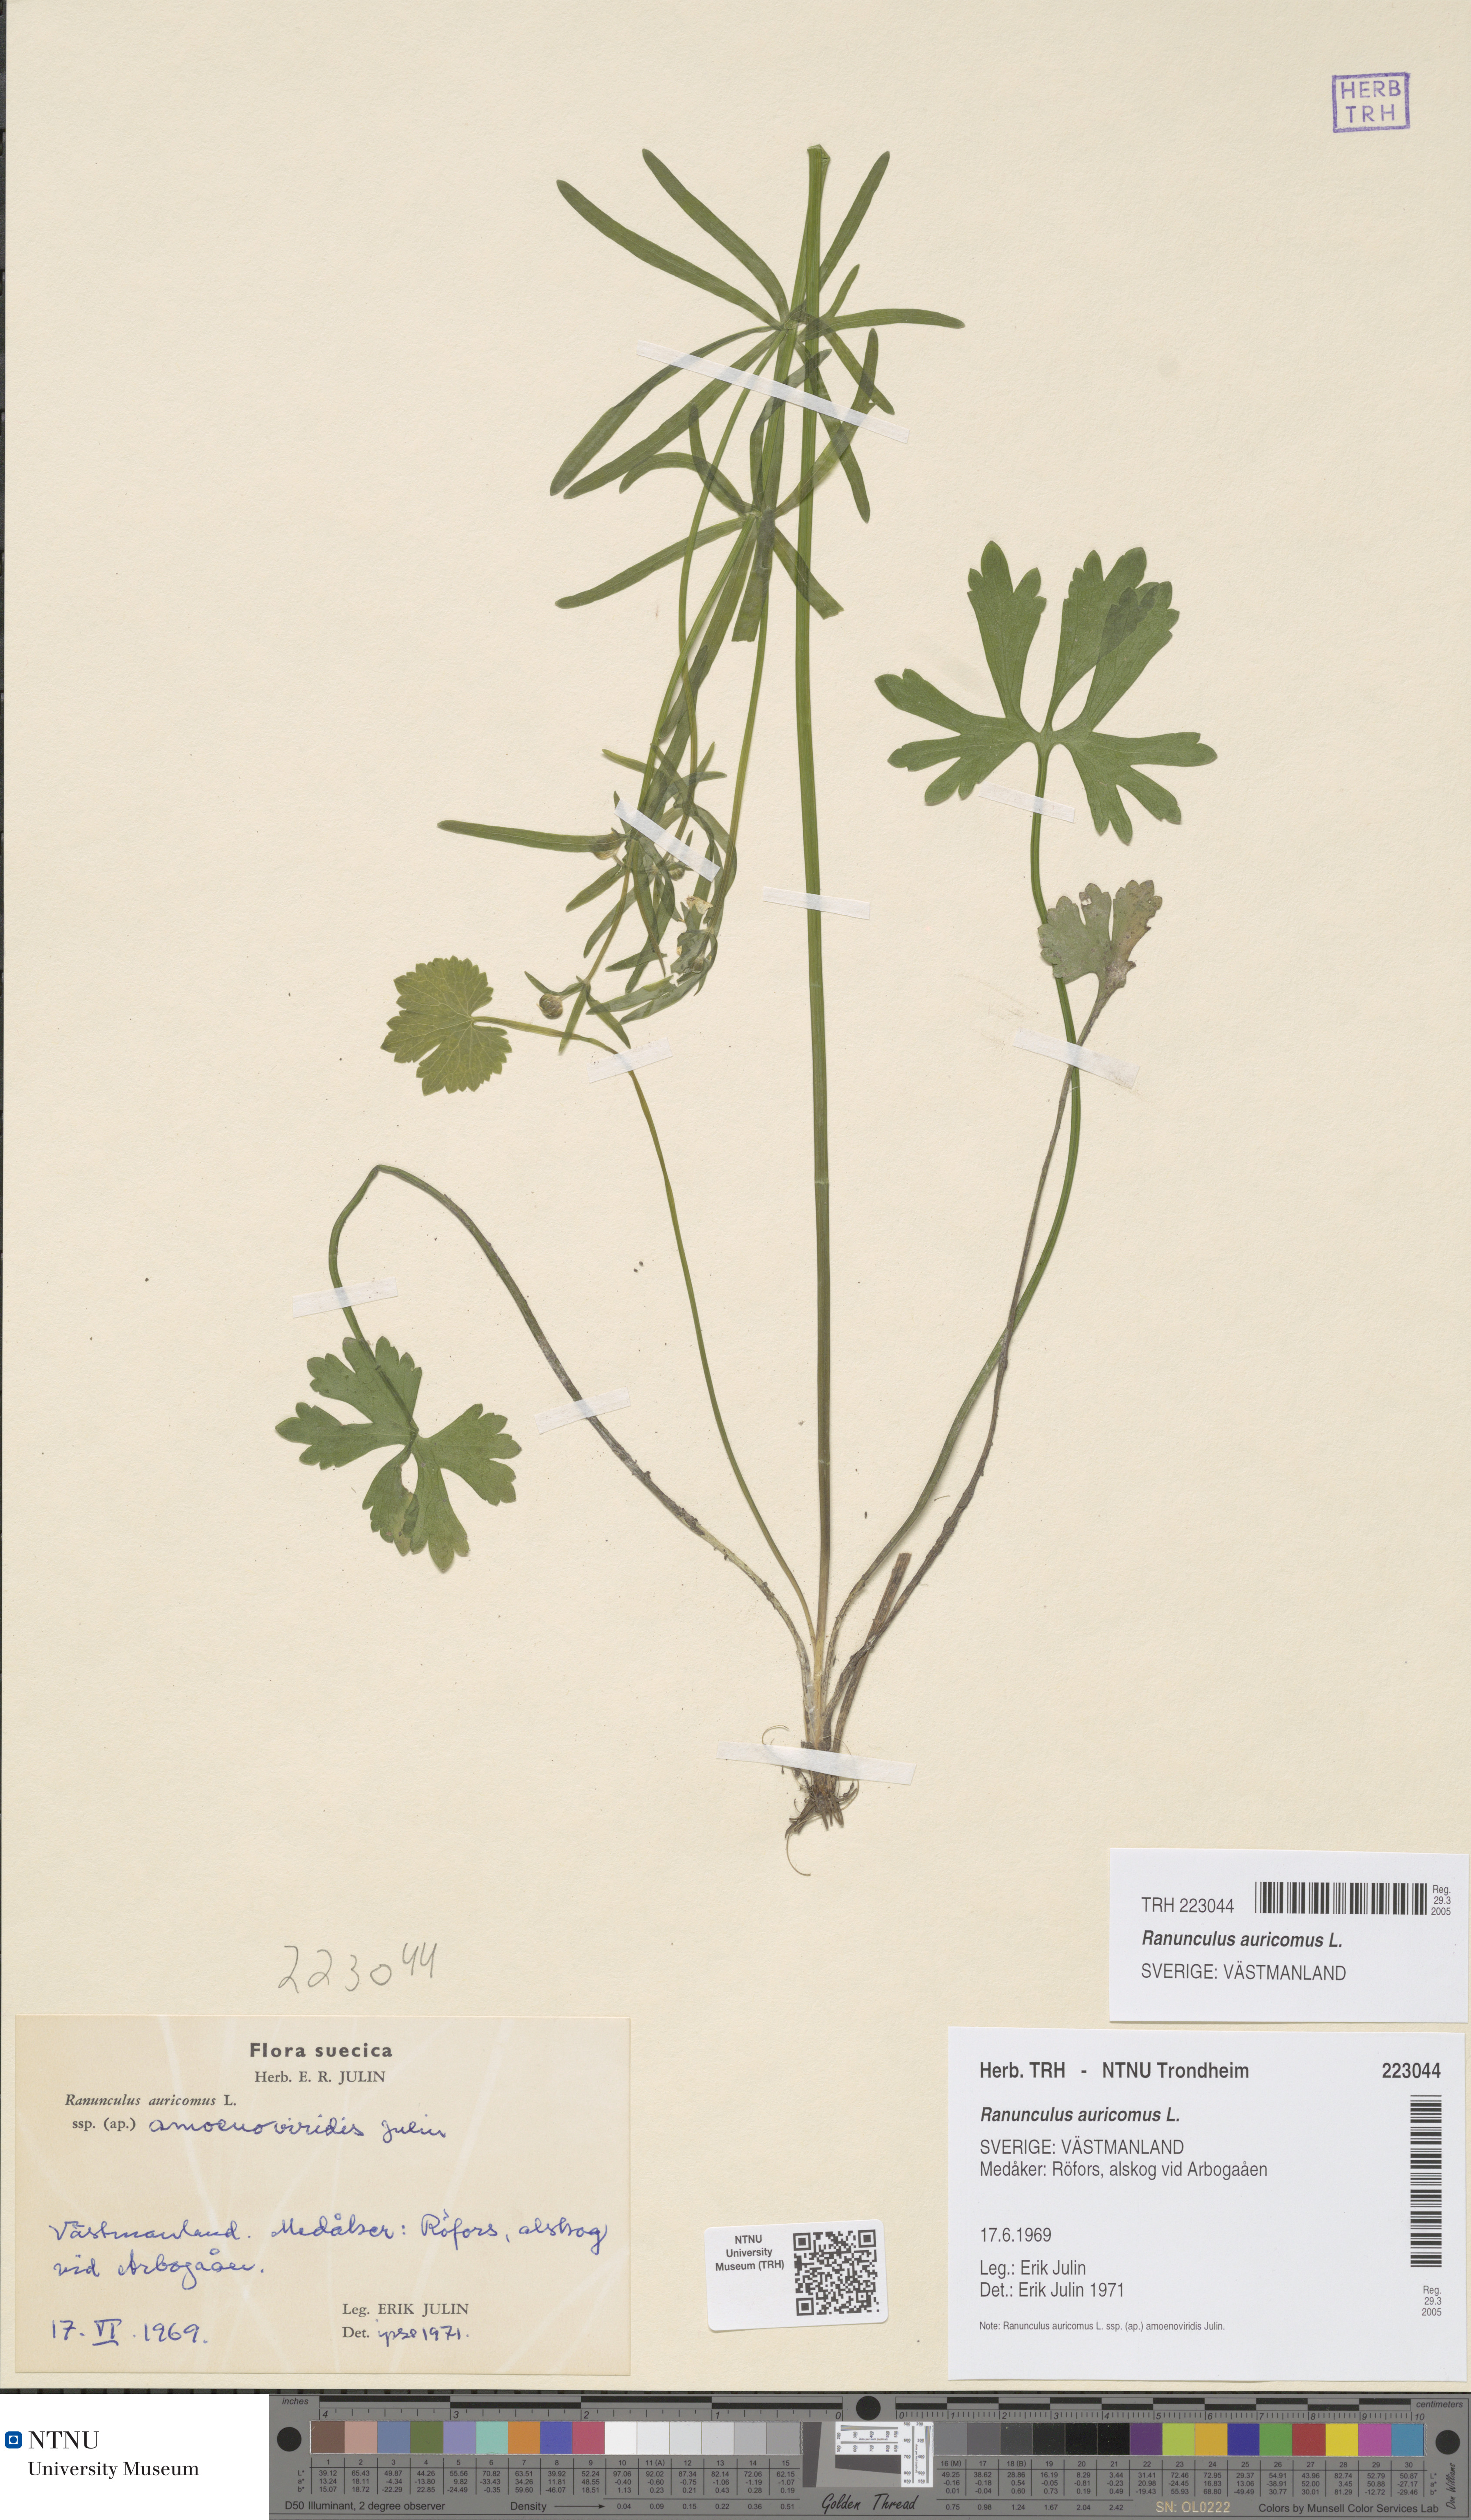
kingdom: Plantae
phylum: Tracheophyta
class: Magnoliopsida
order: Ranunculales
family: Ranunculaceae
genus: Ranunculus
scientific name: Ranunculus auricomus
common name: Goldilocks buttercup
